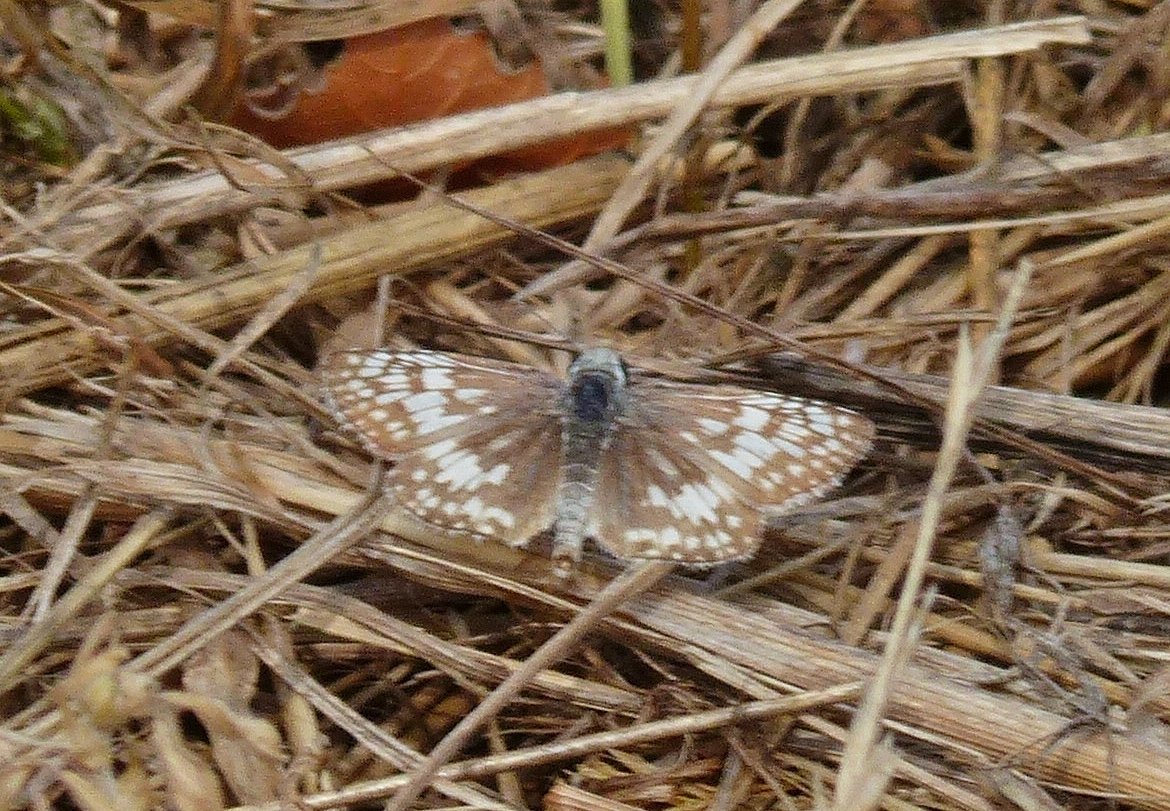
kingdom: Animalia
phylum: Arthropoda
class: Insecta
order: Lepidoptera
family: Hesperiidae
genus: Pyrgus
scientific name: Pyrgus communis
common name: Common Checkered-Skipper
